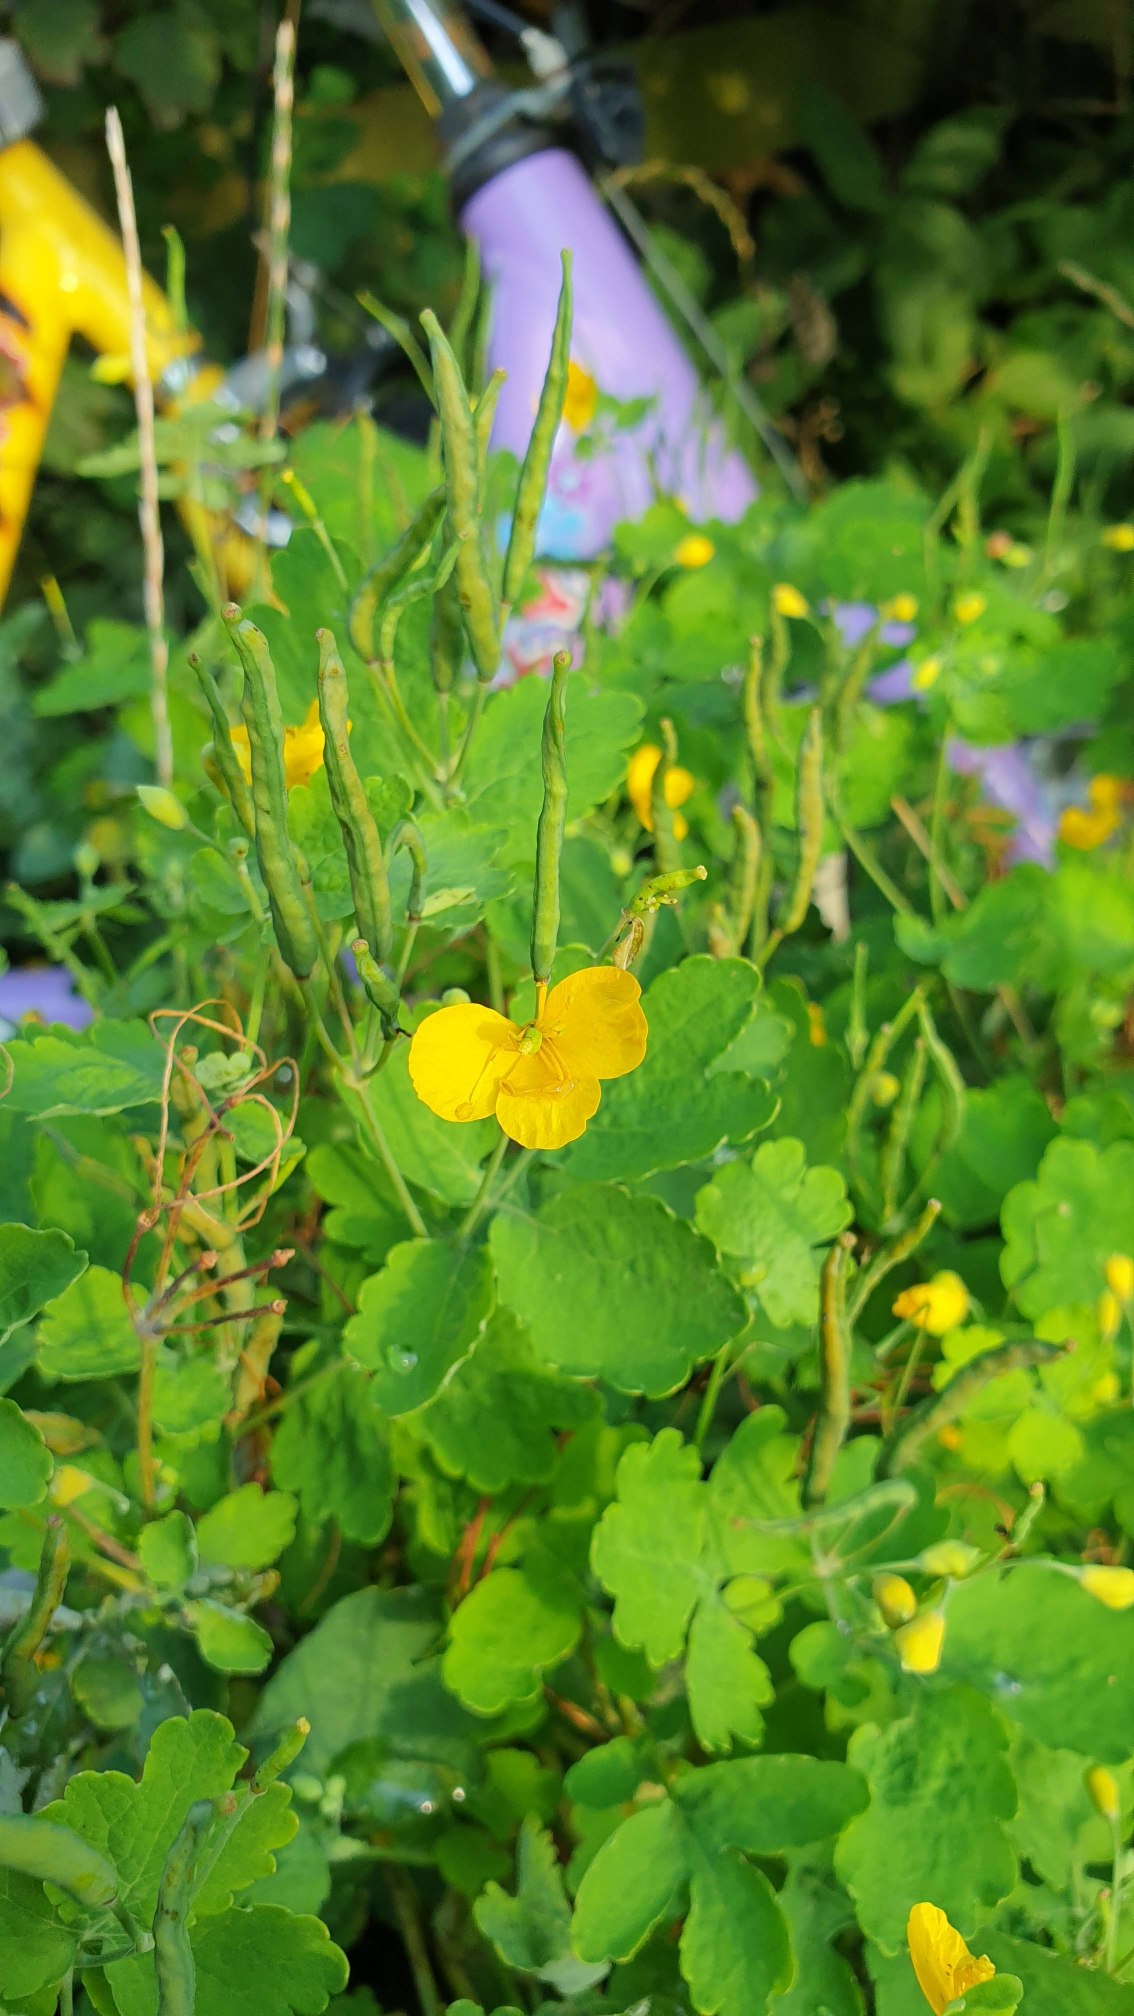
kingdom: Plantae
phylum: Tracheophyta
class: Magnoliopsida
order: Ranunculales
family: Papaveraceae
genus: Chelidonium
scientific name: Chelidonium majus
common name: Svaleurt
